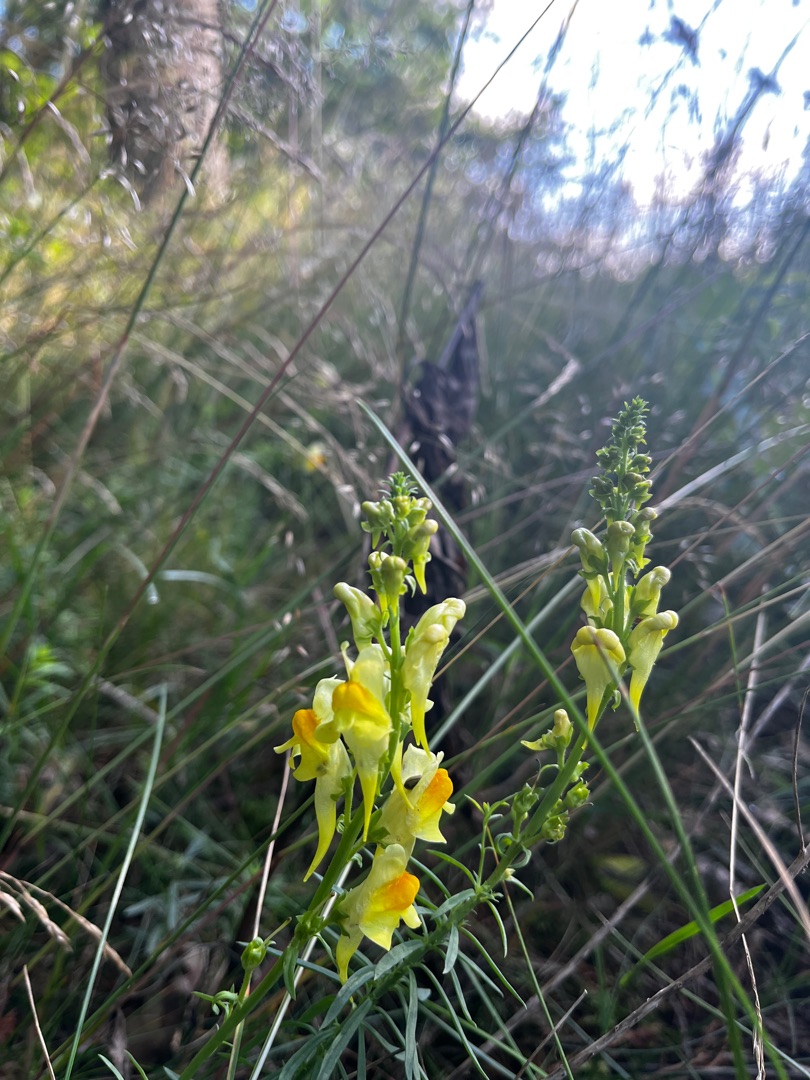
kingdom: Plantae
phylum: Tracheophyta
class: Magnoliopsida
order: Lamiales
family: Plantaginaceae
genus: Linaria
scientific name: Linaria vulgaris
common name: Almindelig torskemund
